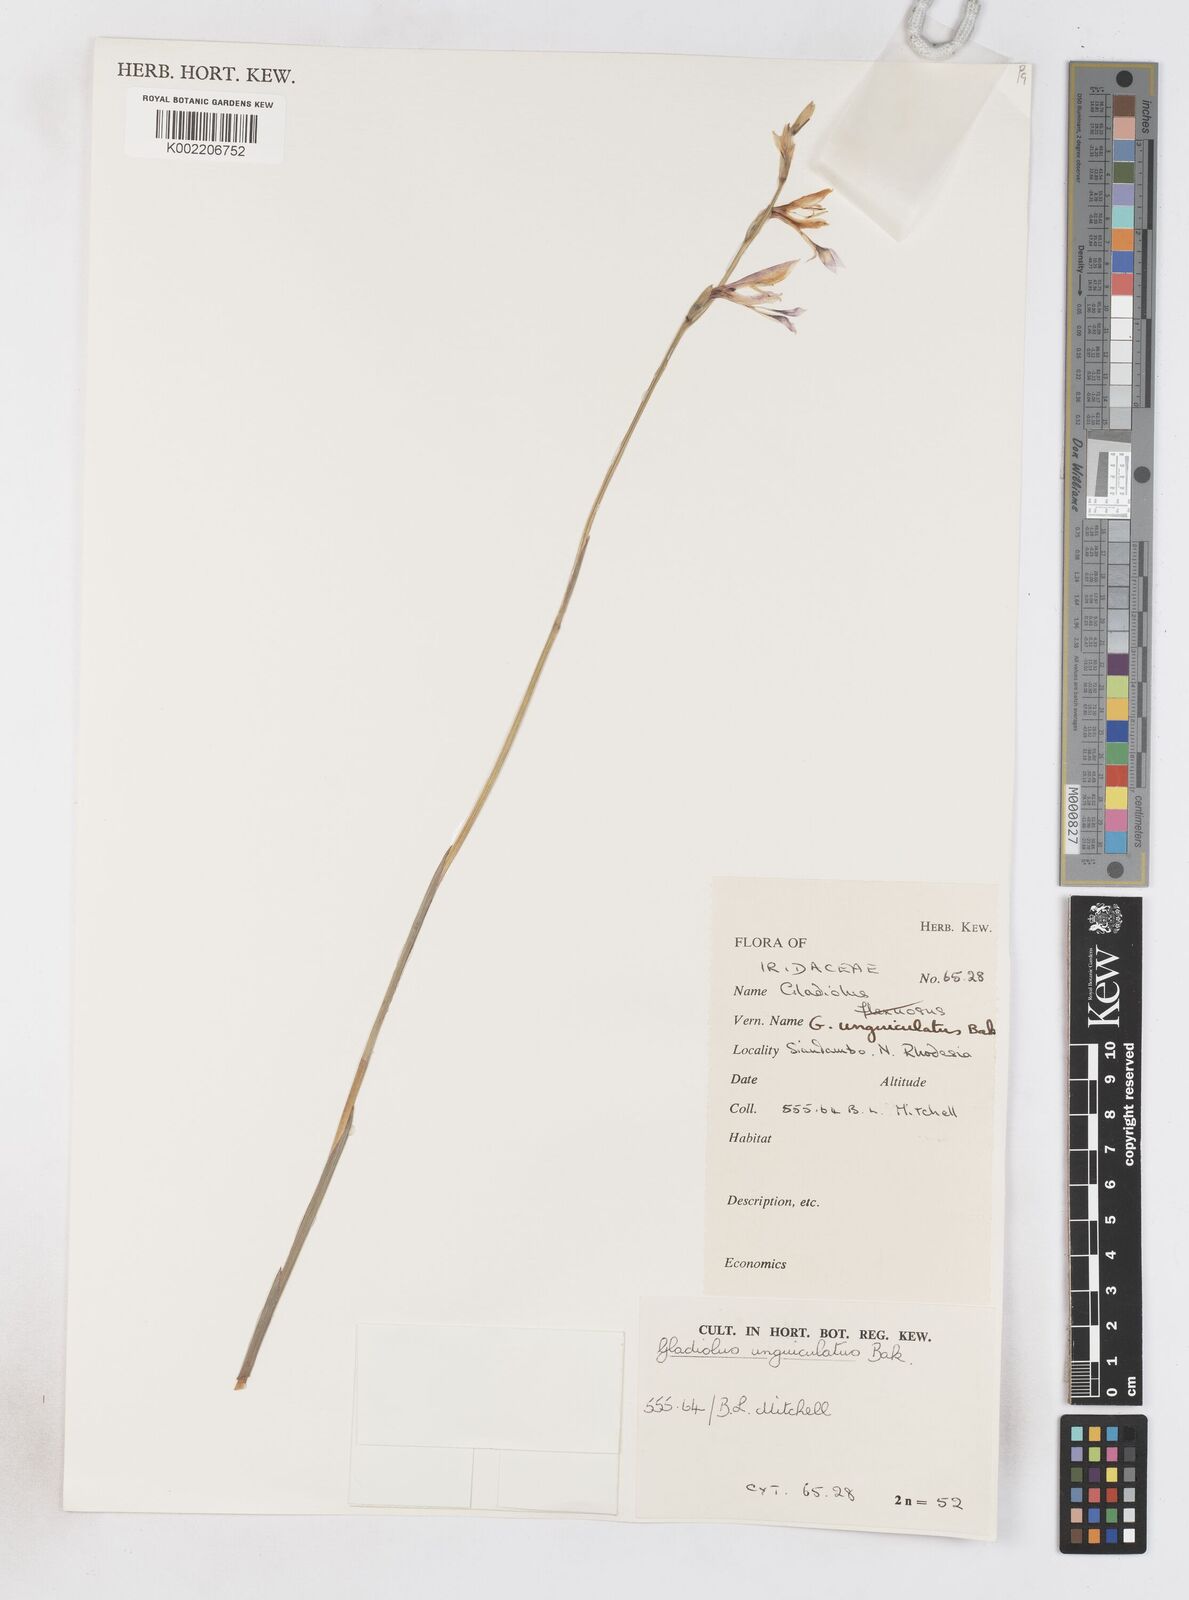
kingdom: Plantae
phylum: Tracheophyta
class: Liliopsida
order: Asparagales
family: Iridaceae
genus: Gladiolus
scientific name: Gladiolus unguiculatus
